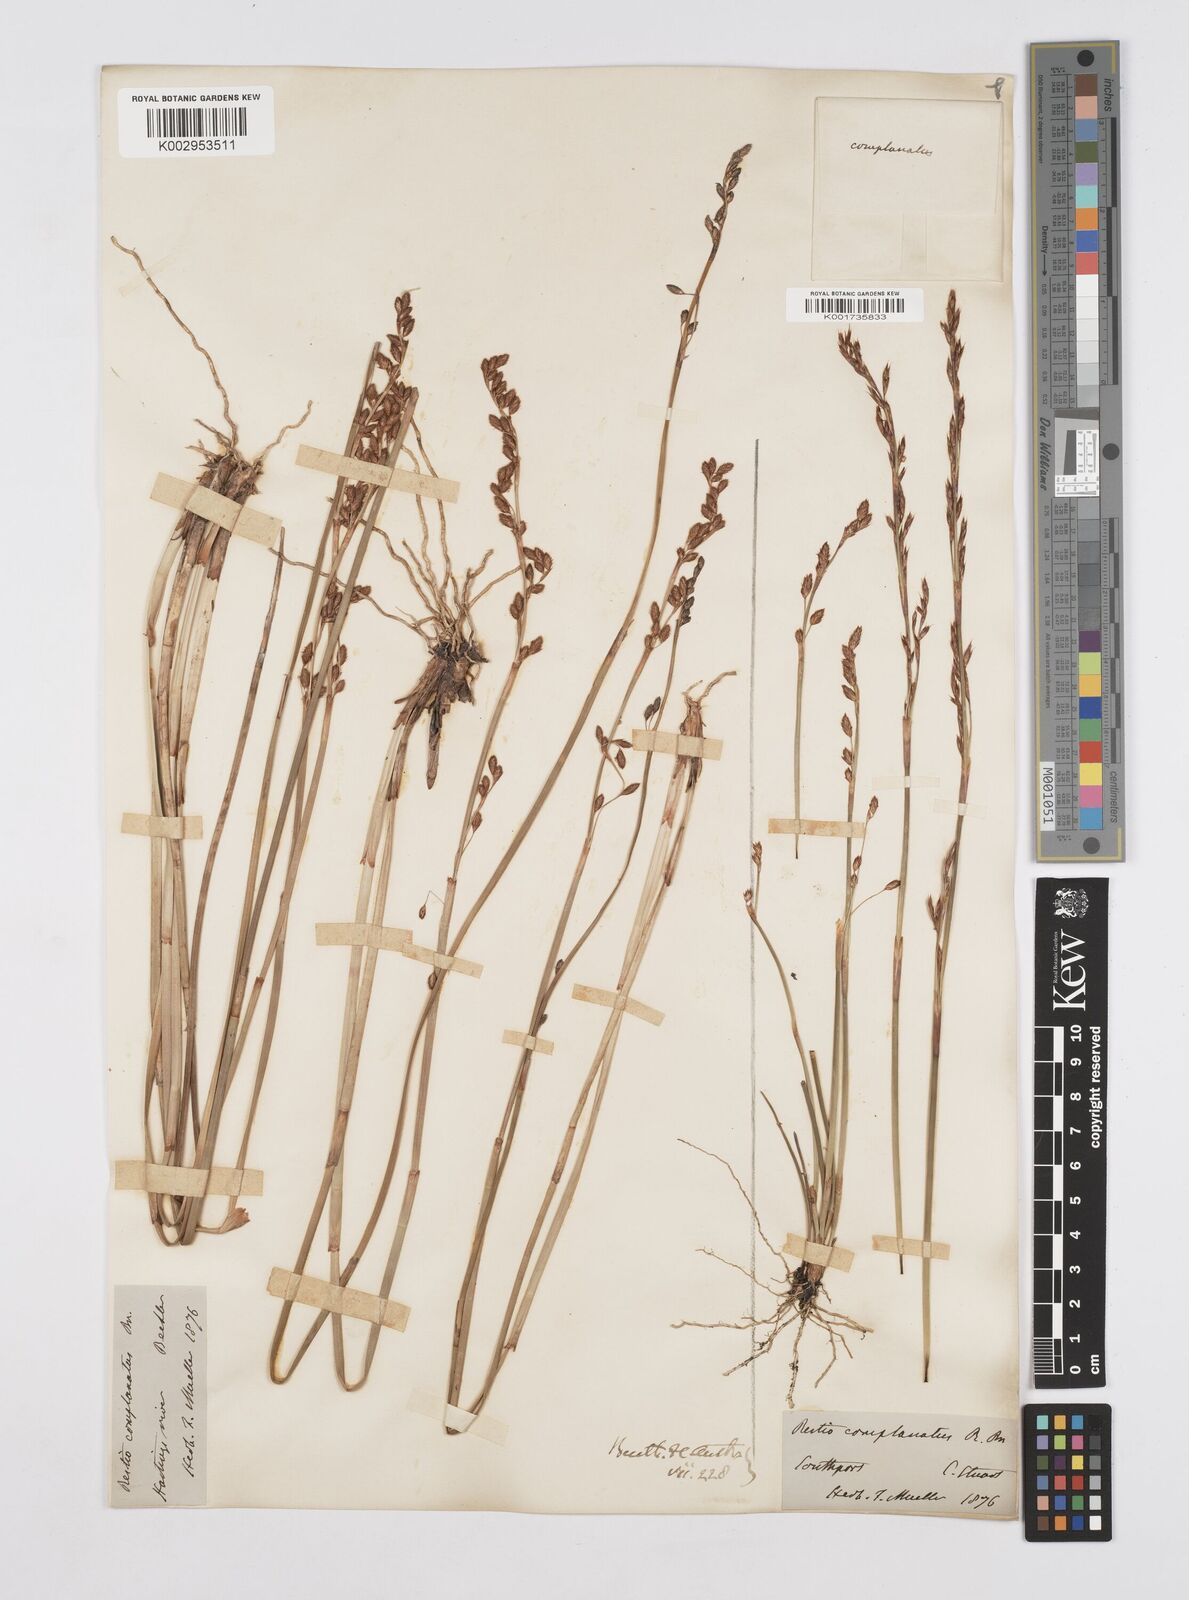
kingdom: Plantae
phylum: Tracheophyta
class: Liliopsida
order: Poales
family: Restionaceae
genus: Eurychorda
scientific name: Eurychorda complanata
